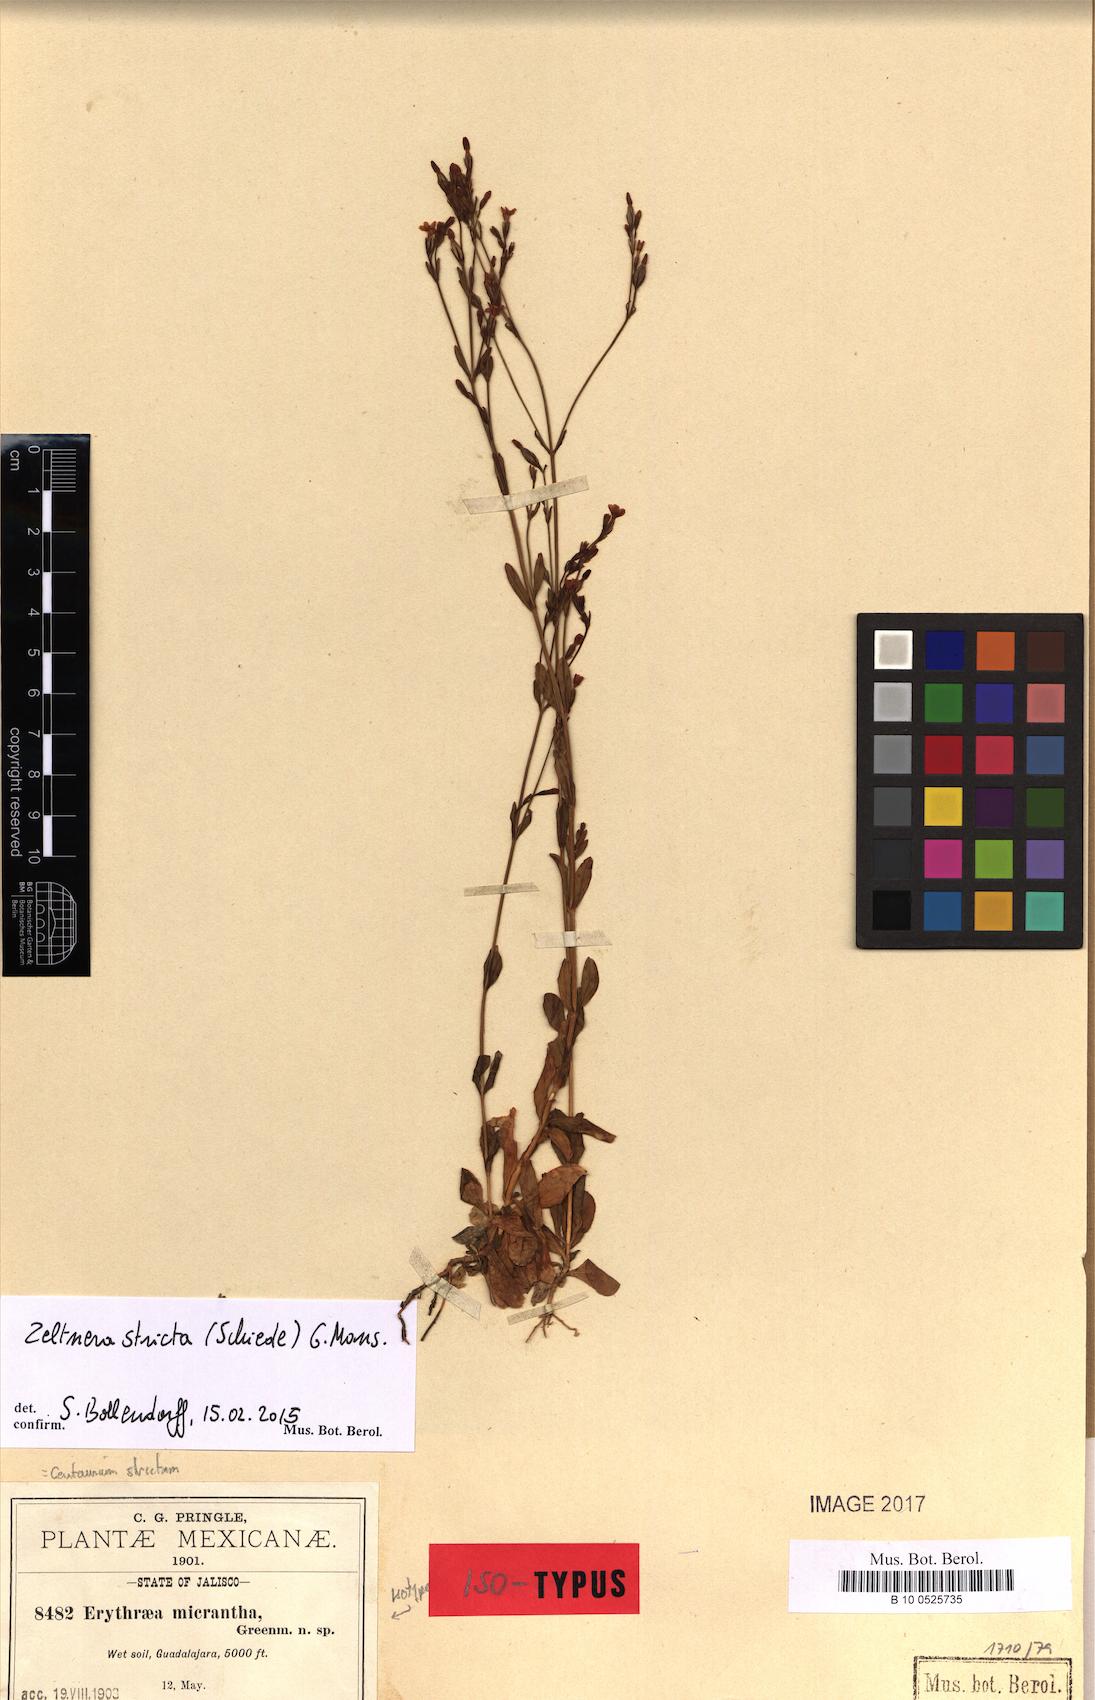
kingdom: Plantae
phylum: Tracheophyta
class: Magnoliopsida
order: Gentianales
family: Gentianaceae
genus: Zeltnera
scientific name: Zeltnera stricta
